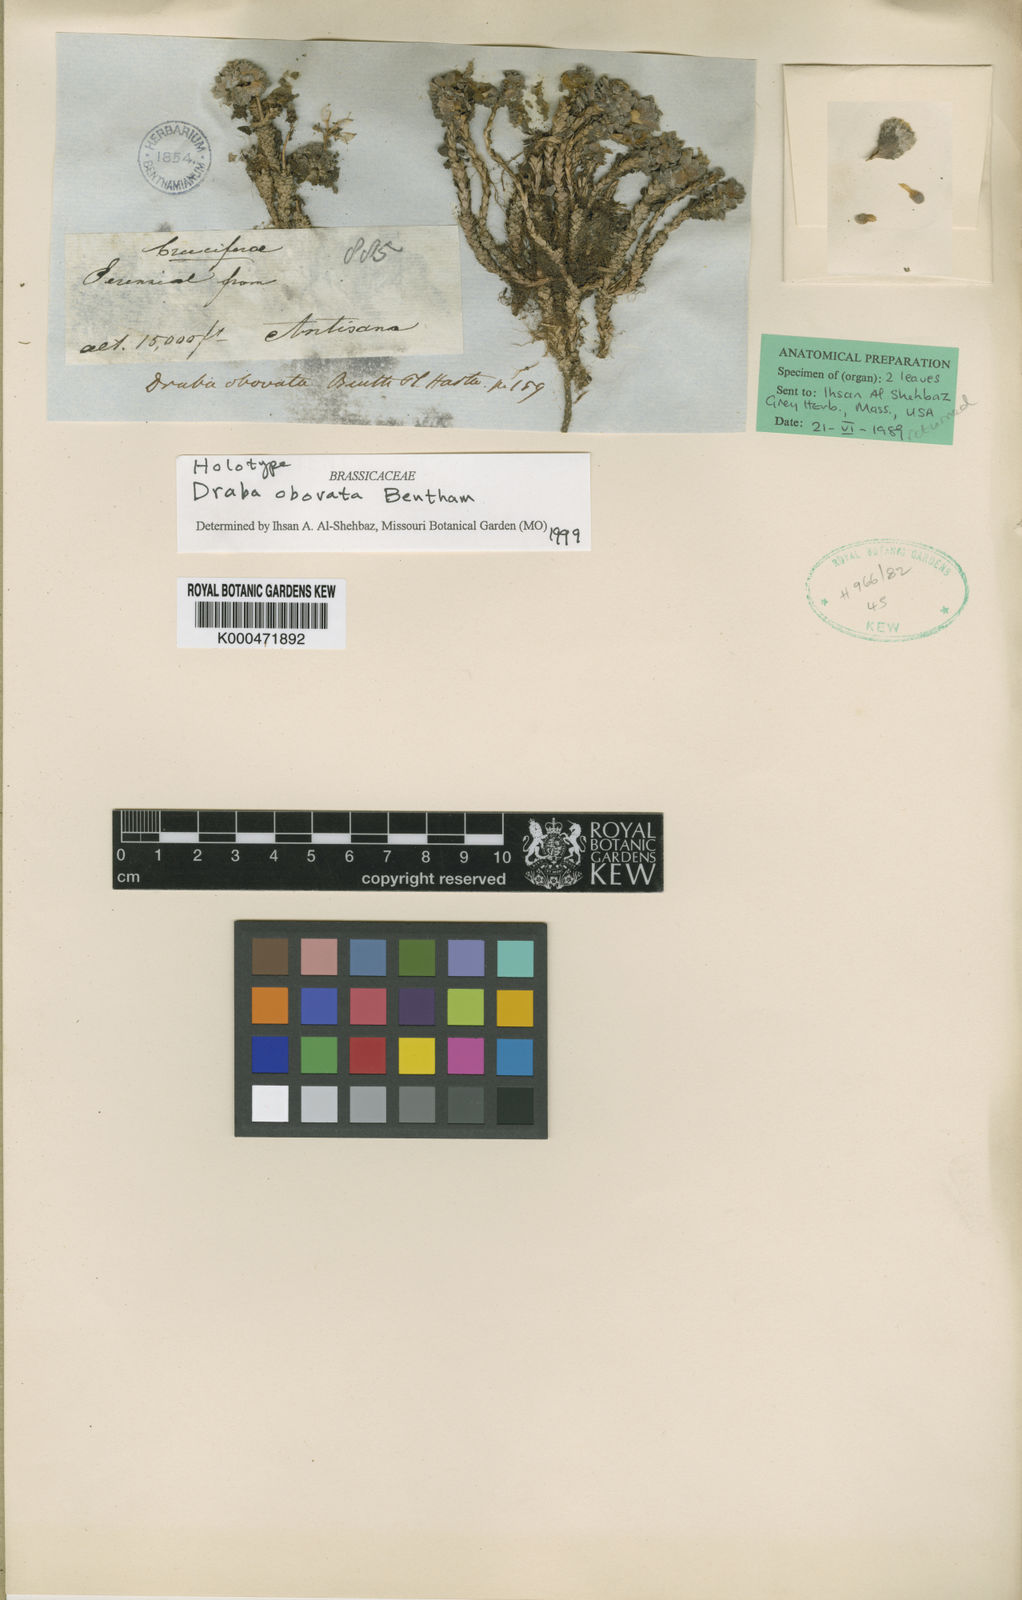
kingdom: Plantae
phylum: Tracheophyta
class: Magnoliopsida
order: Brassicales
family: Brassicaceae
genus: Draba
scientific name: Draba obovata
